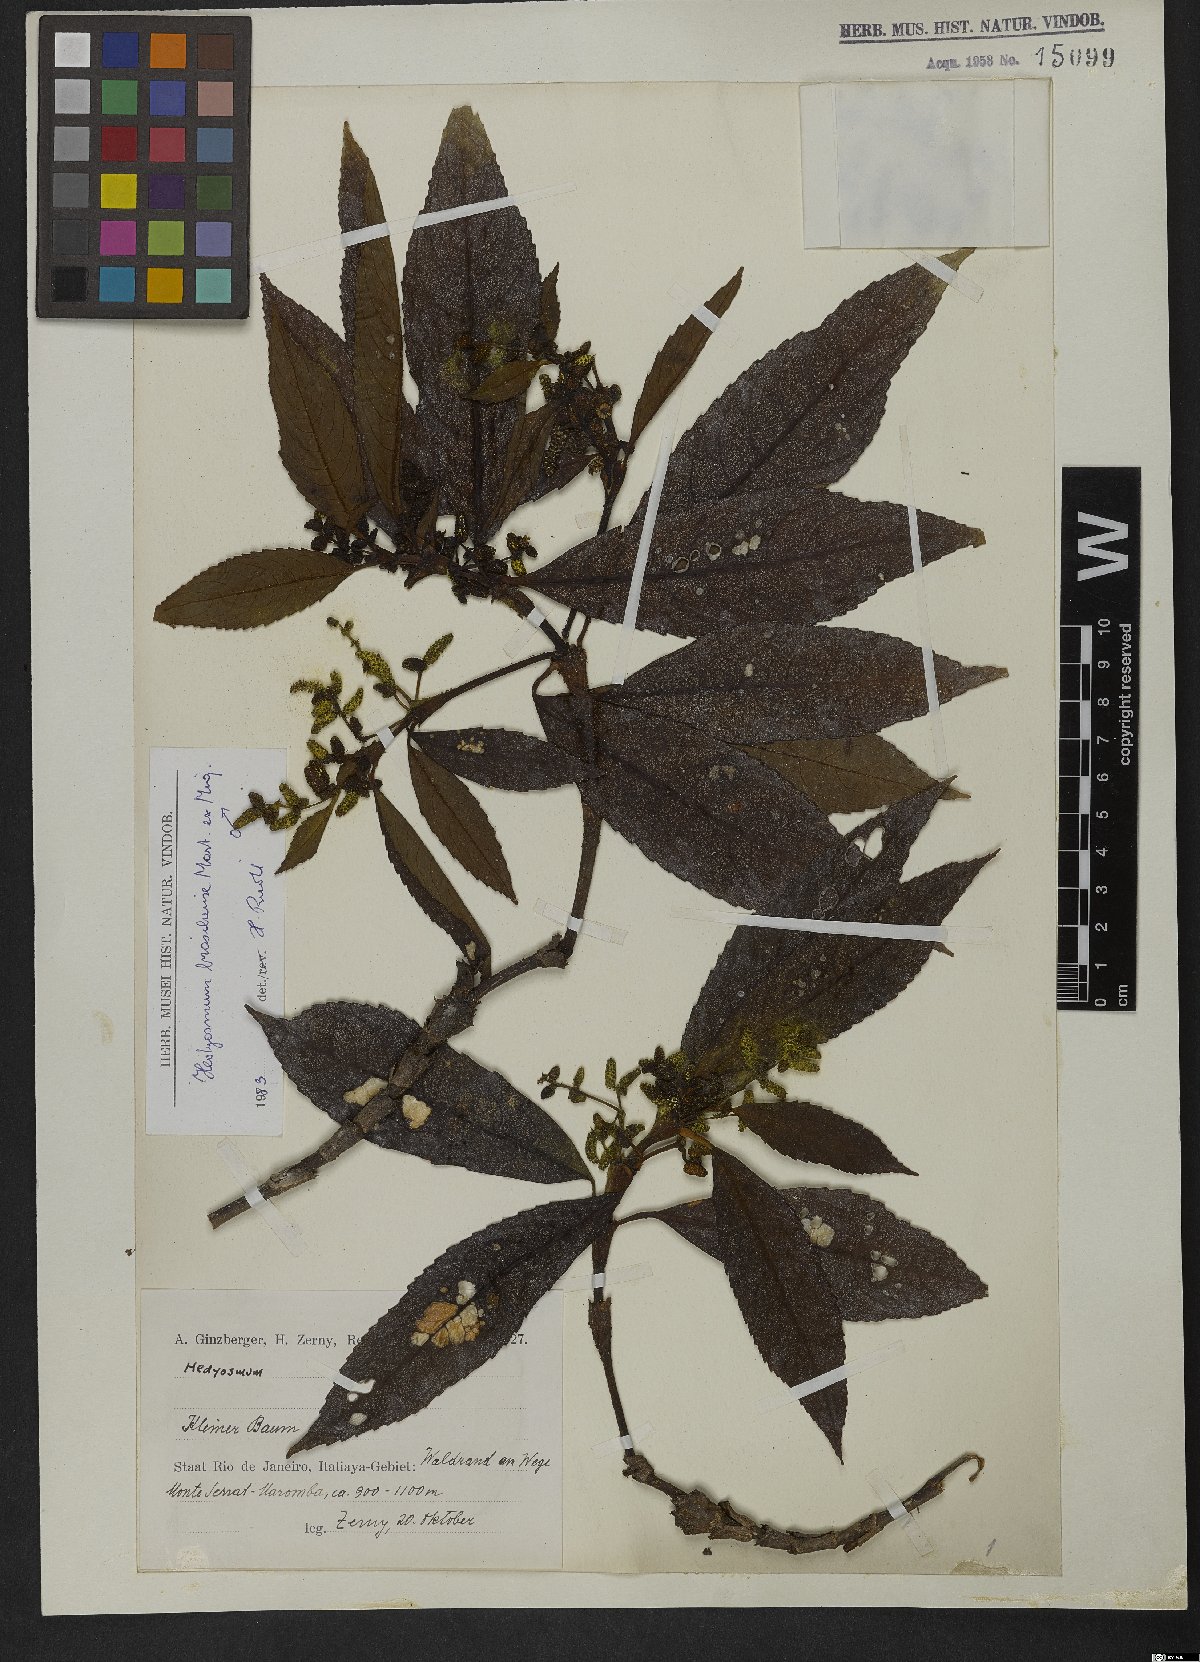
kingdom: Plantae
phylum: Tracheophyta
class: Magnoliopsida
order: Chloranthales
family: Chloranthaceae
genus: Hedyosmum
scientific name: Hedyosmum brasiliense
